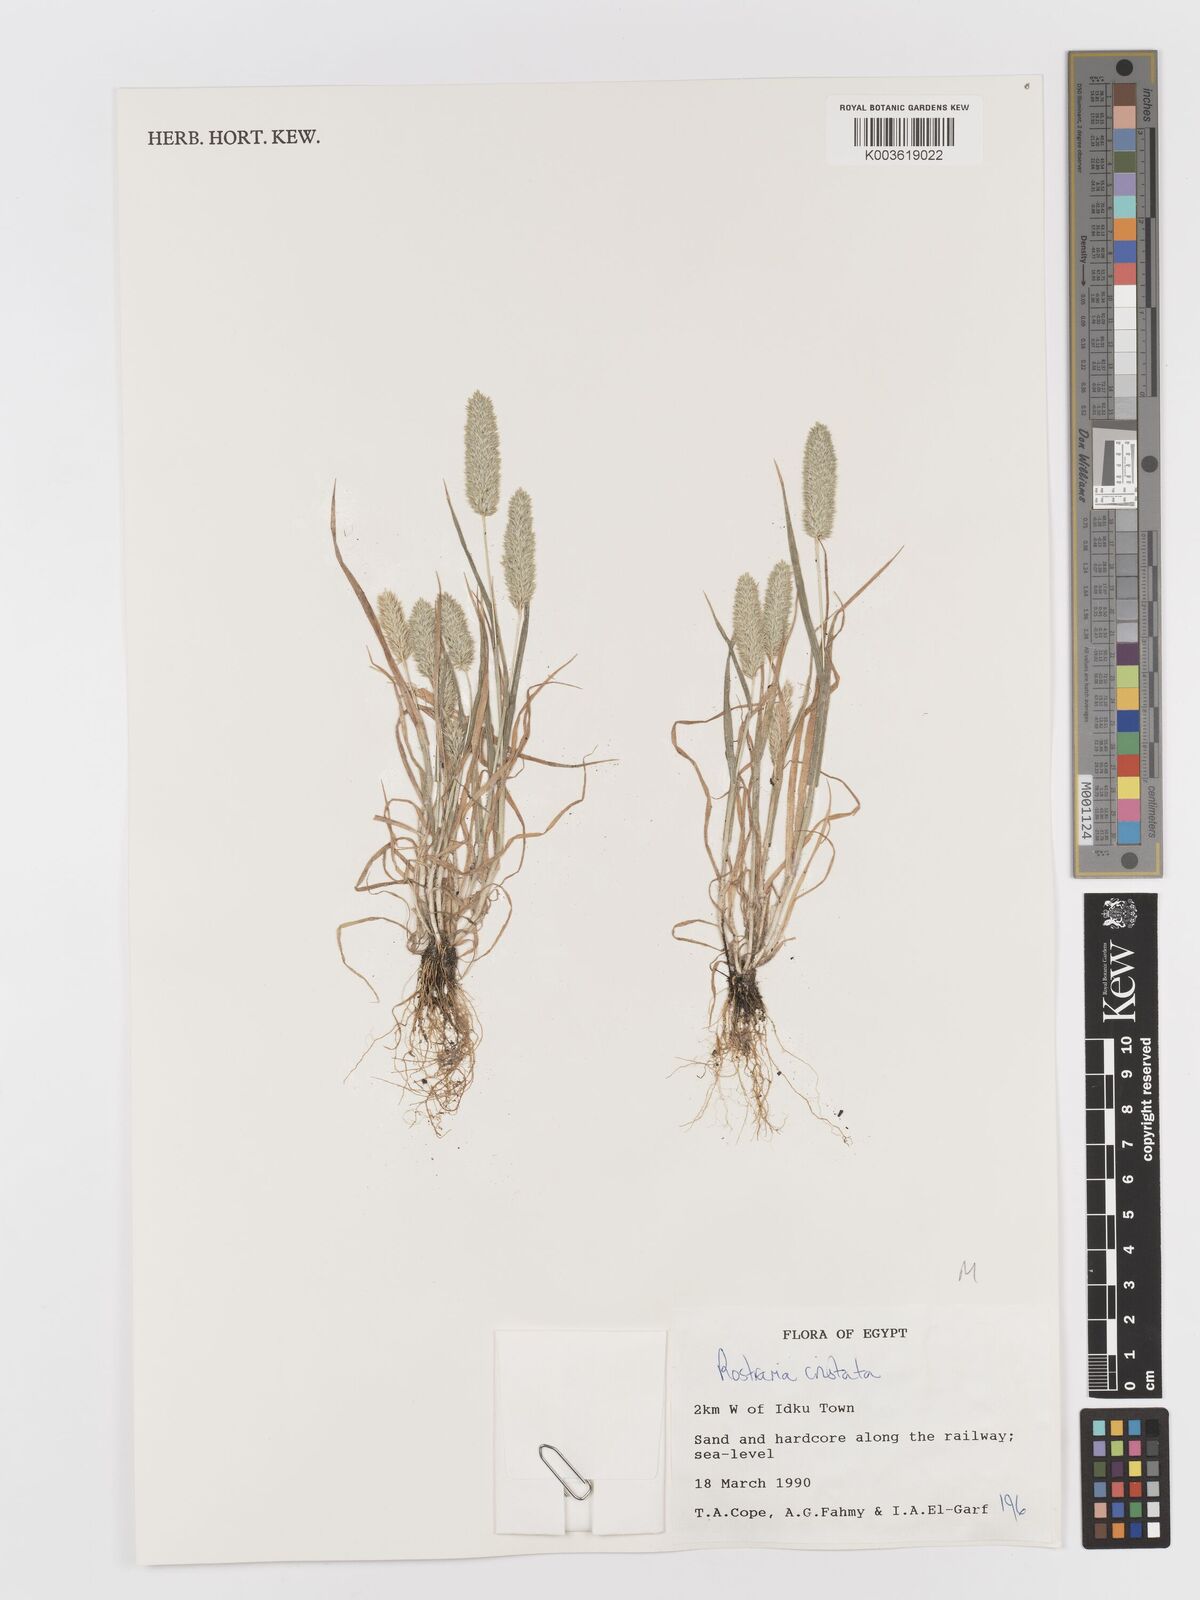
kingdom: Plantae
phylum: Tracheophyta
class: Liliopsida
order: Poales
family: Poaceae
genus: Rostraria
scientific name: Rostraria cristata
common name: Mediterranean hair-grass
